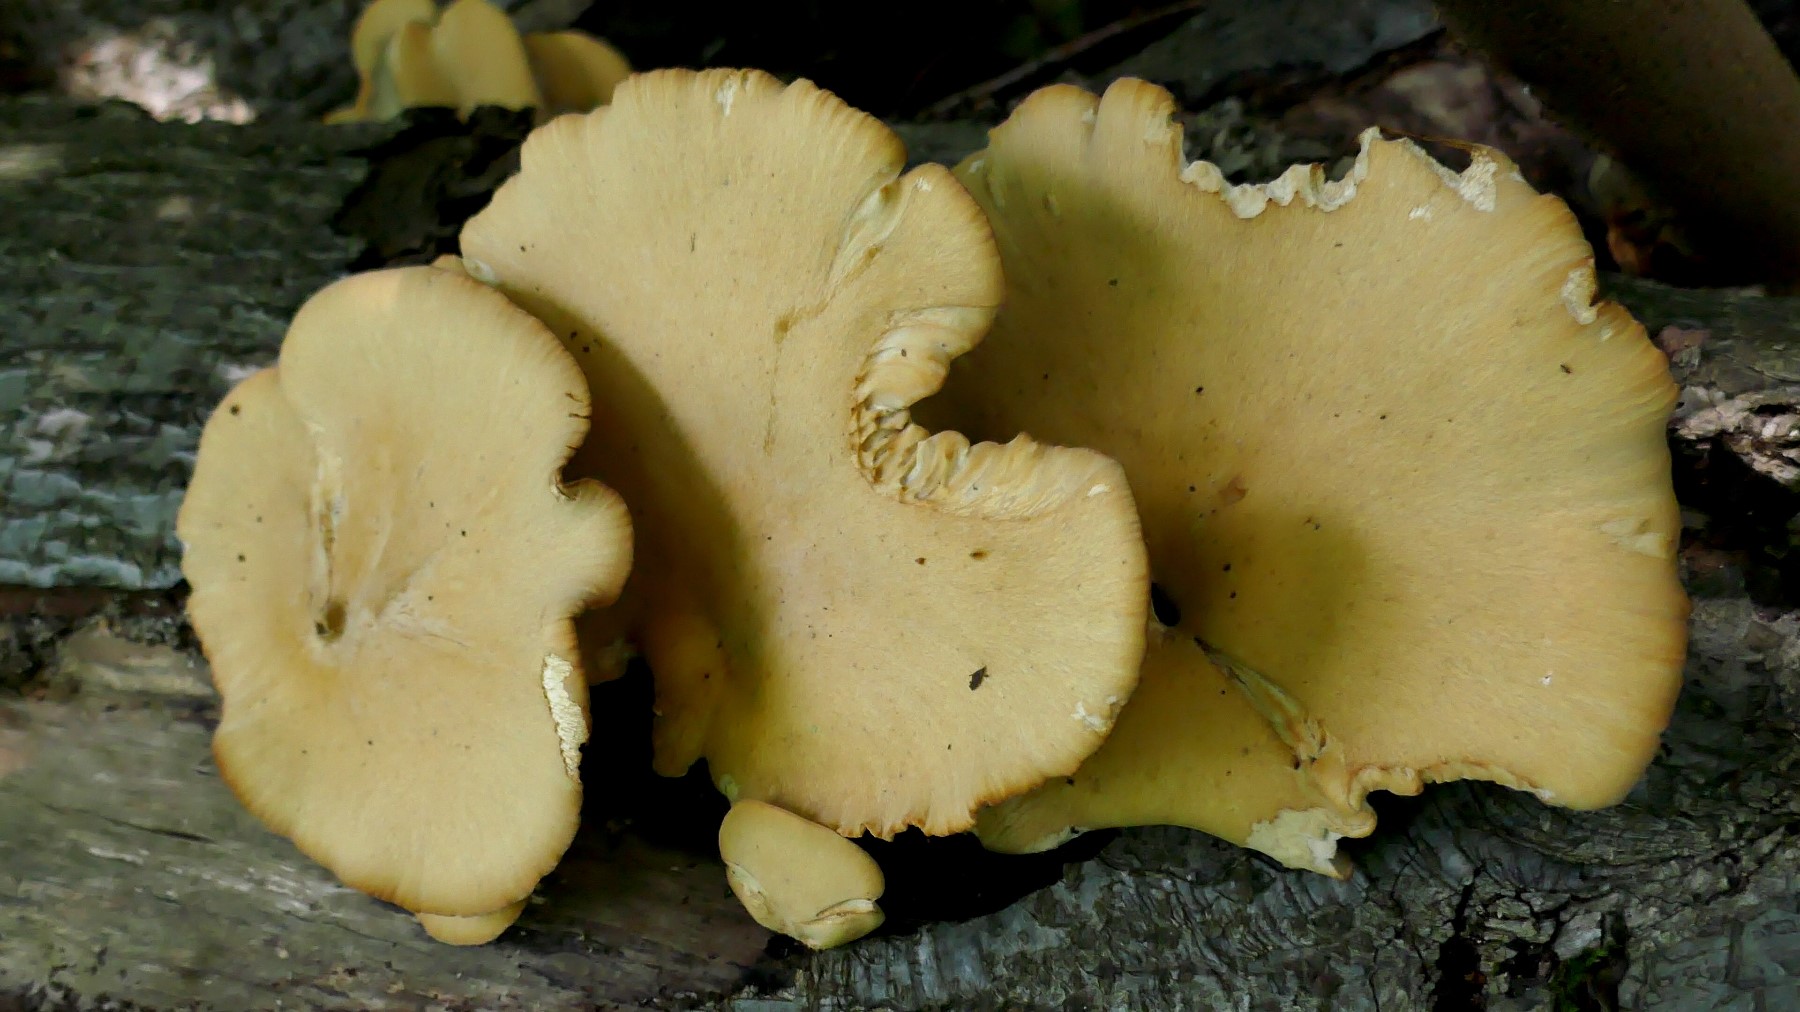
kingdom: Fungi
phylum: Basidiomycota
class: Agaricomycetes
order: Polyporales
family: Polyporaceae
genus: Cerioporus
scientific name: Cerioporus varius
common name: foranderlig stilkporesvamp
